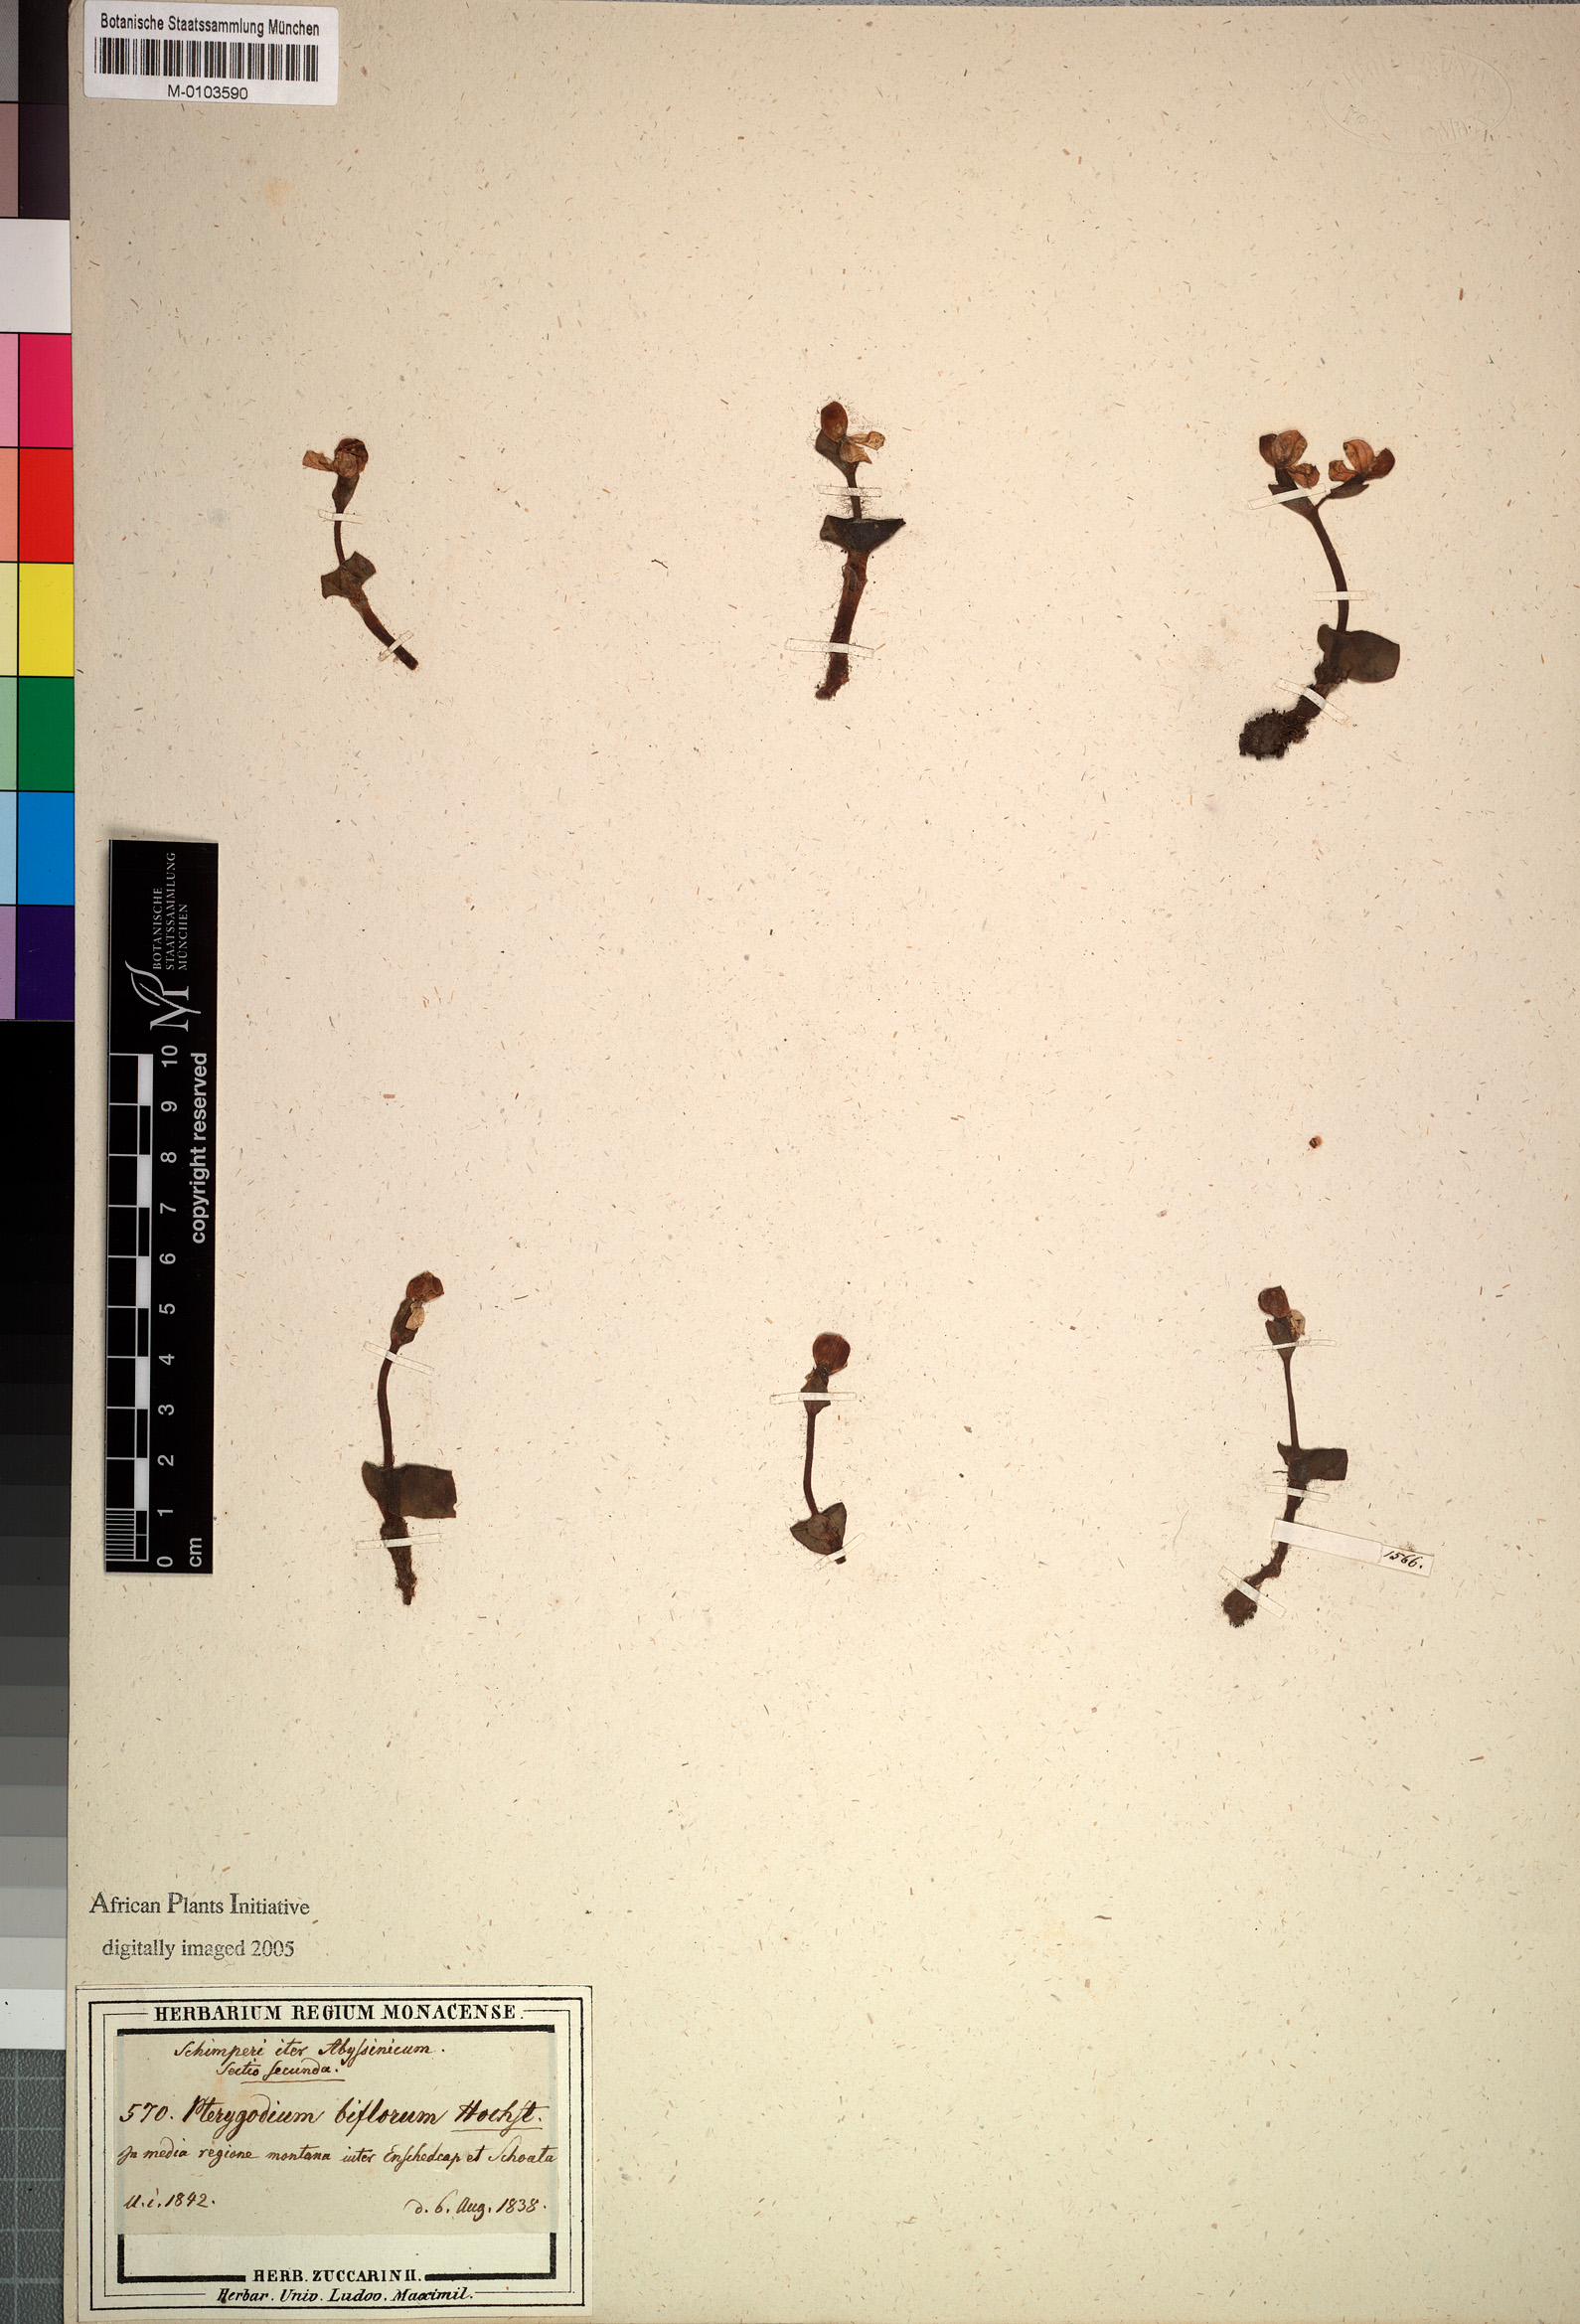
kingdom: Plantae
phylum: Tracheophyta
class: Liliopsida
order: Asparagales
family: Orchidaceae
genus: Disperis
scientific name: Disperis crassicaulis
